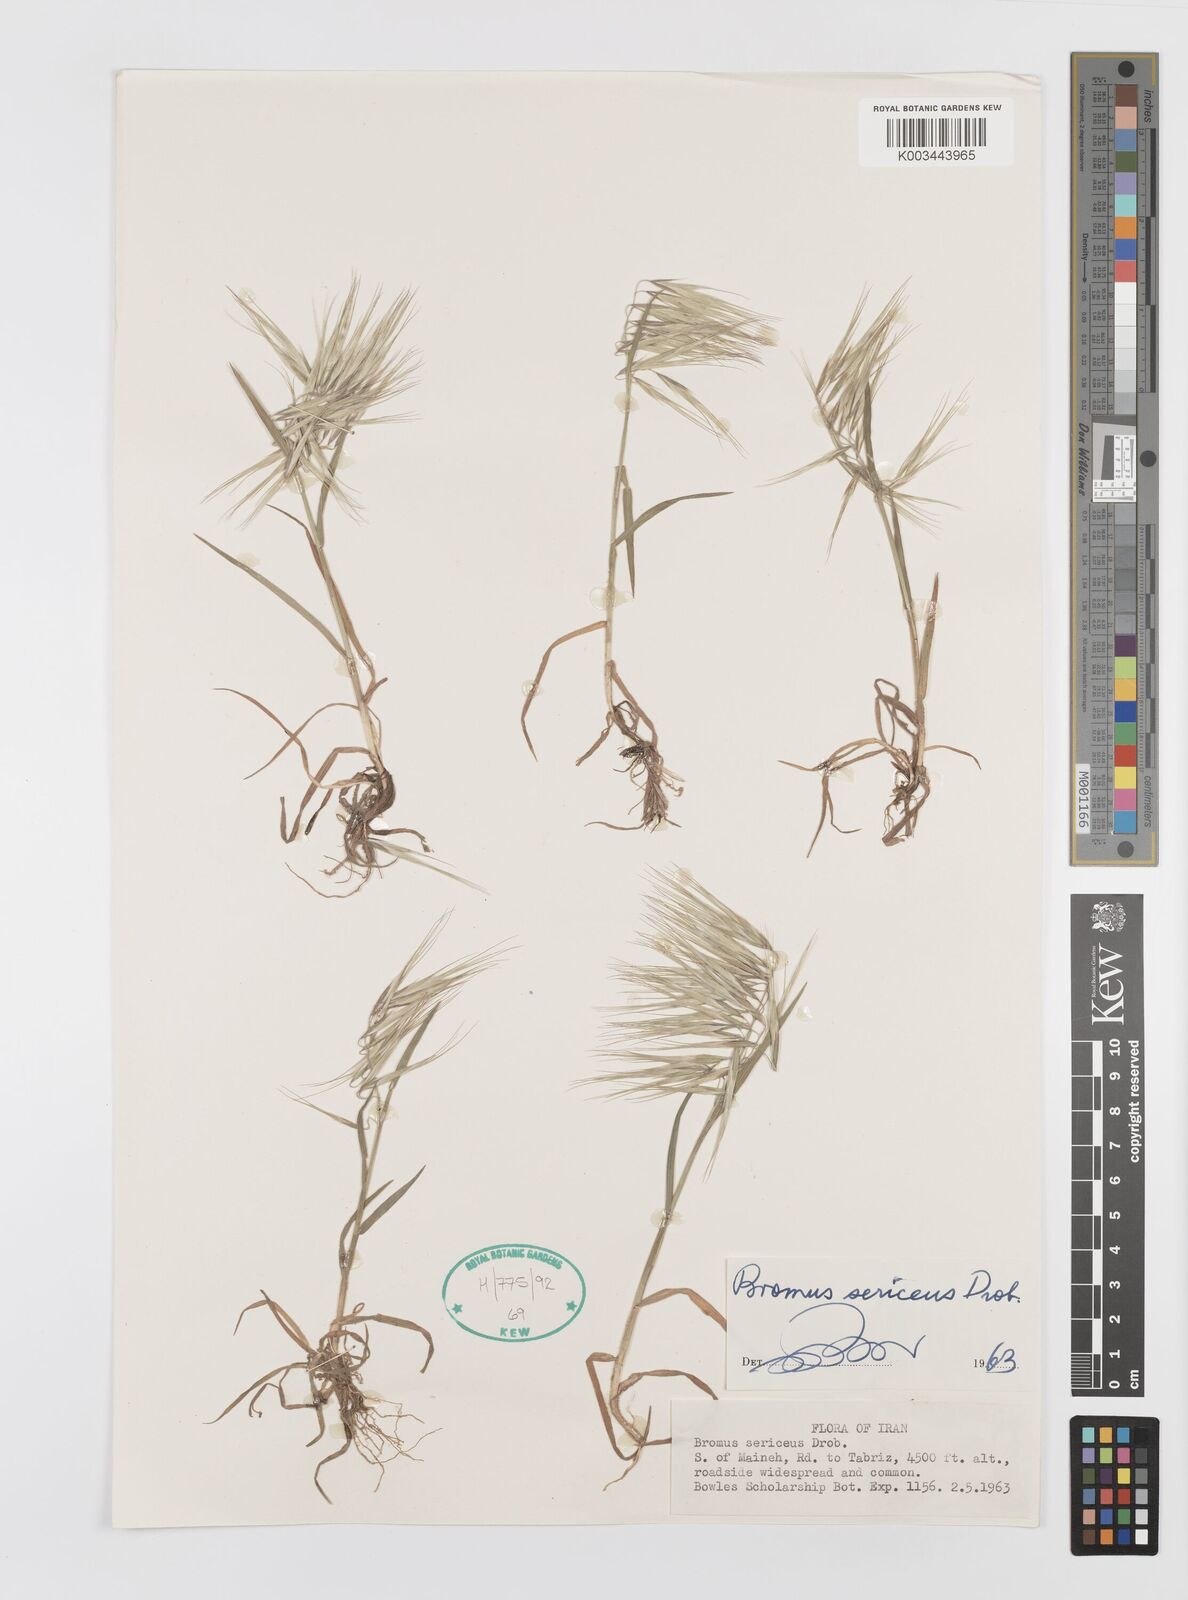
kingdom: Plantae
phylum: Tracheophyta
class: Liliopsida
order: Poales
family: Poaceae
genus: Bromus
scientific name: Bromus moeszii
